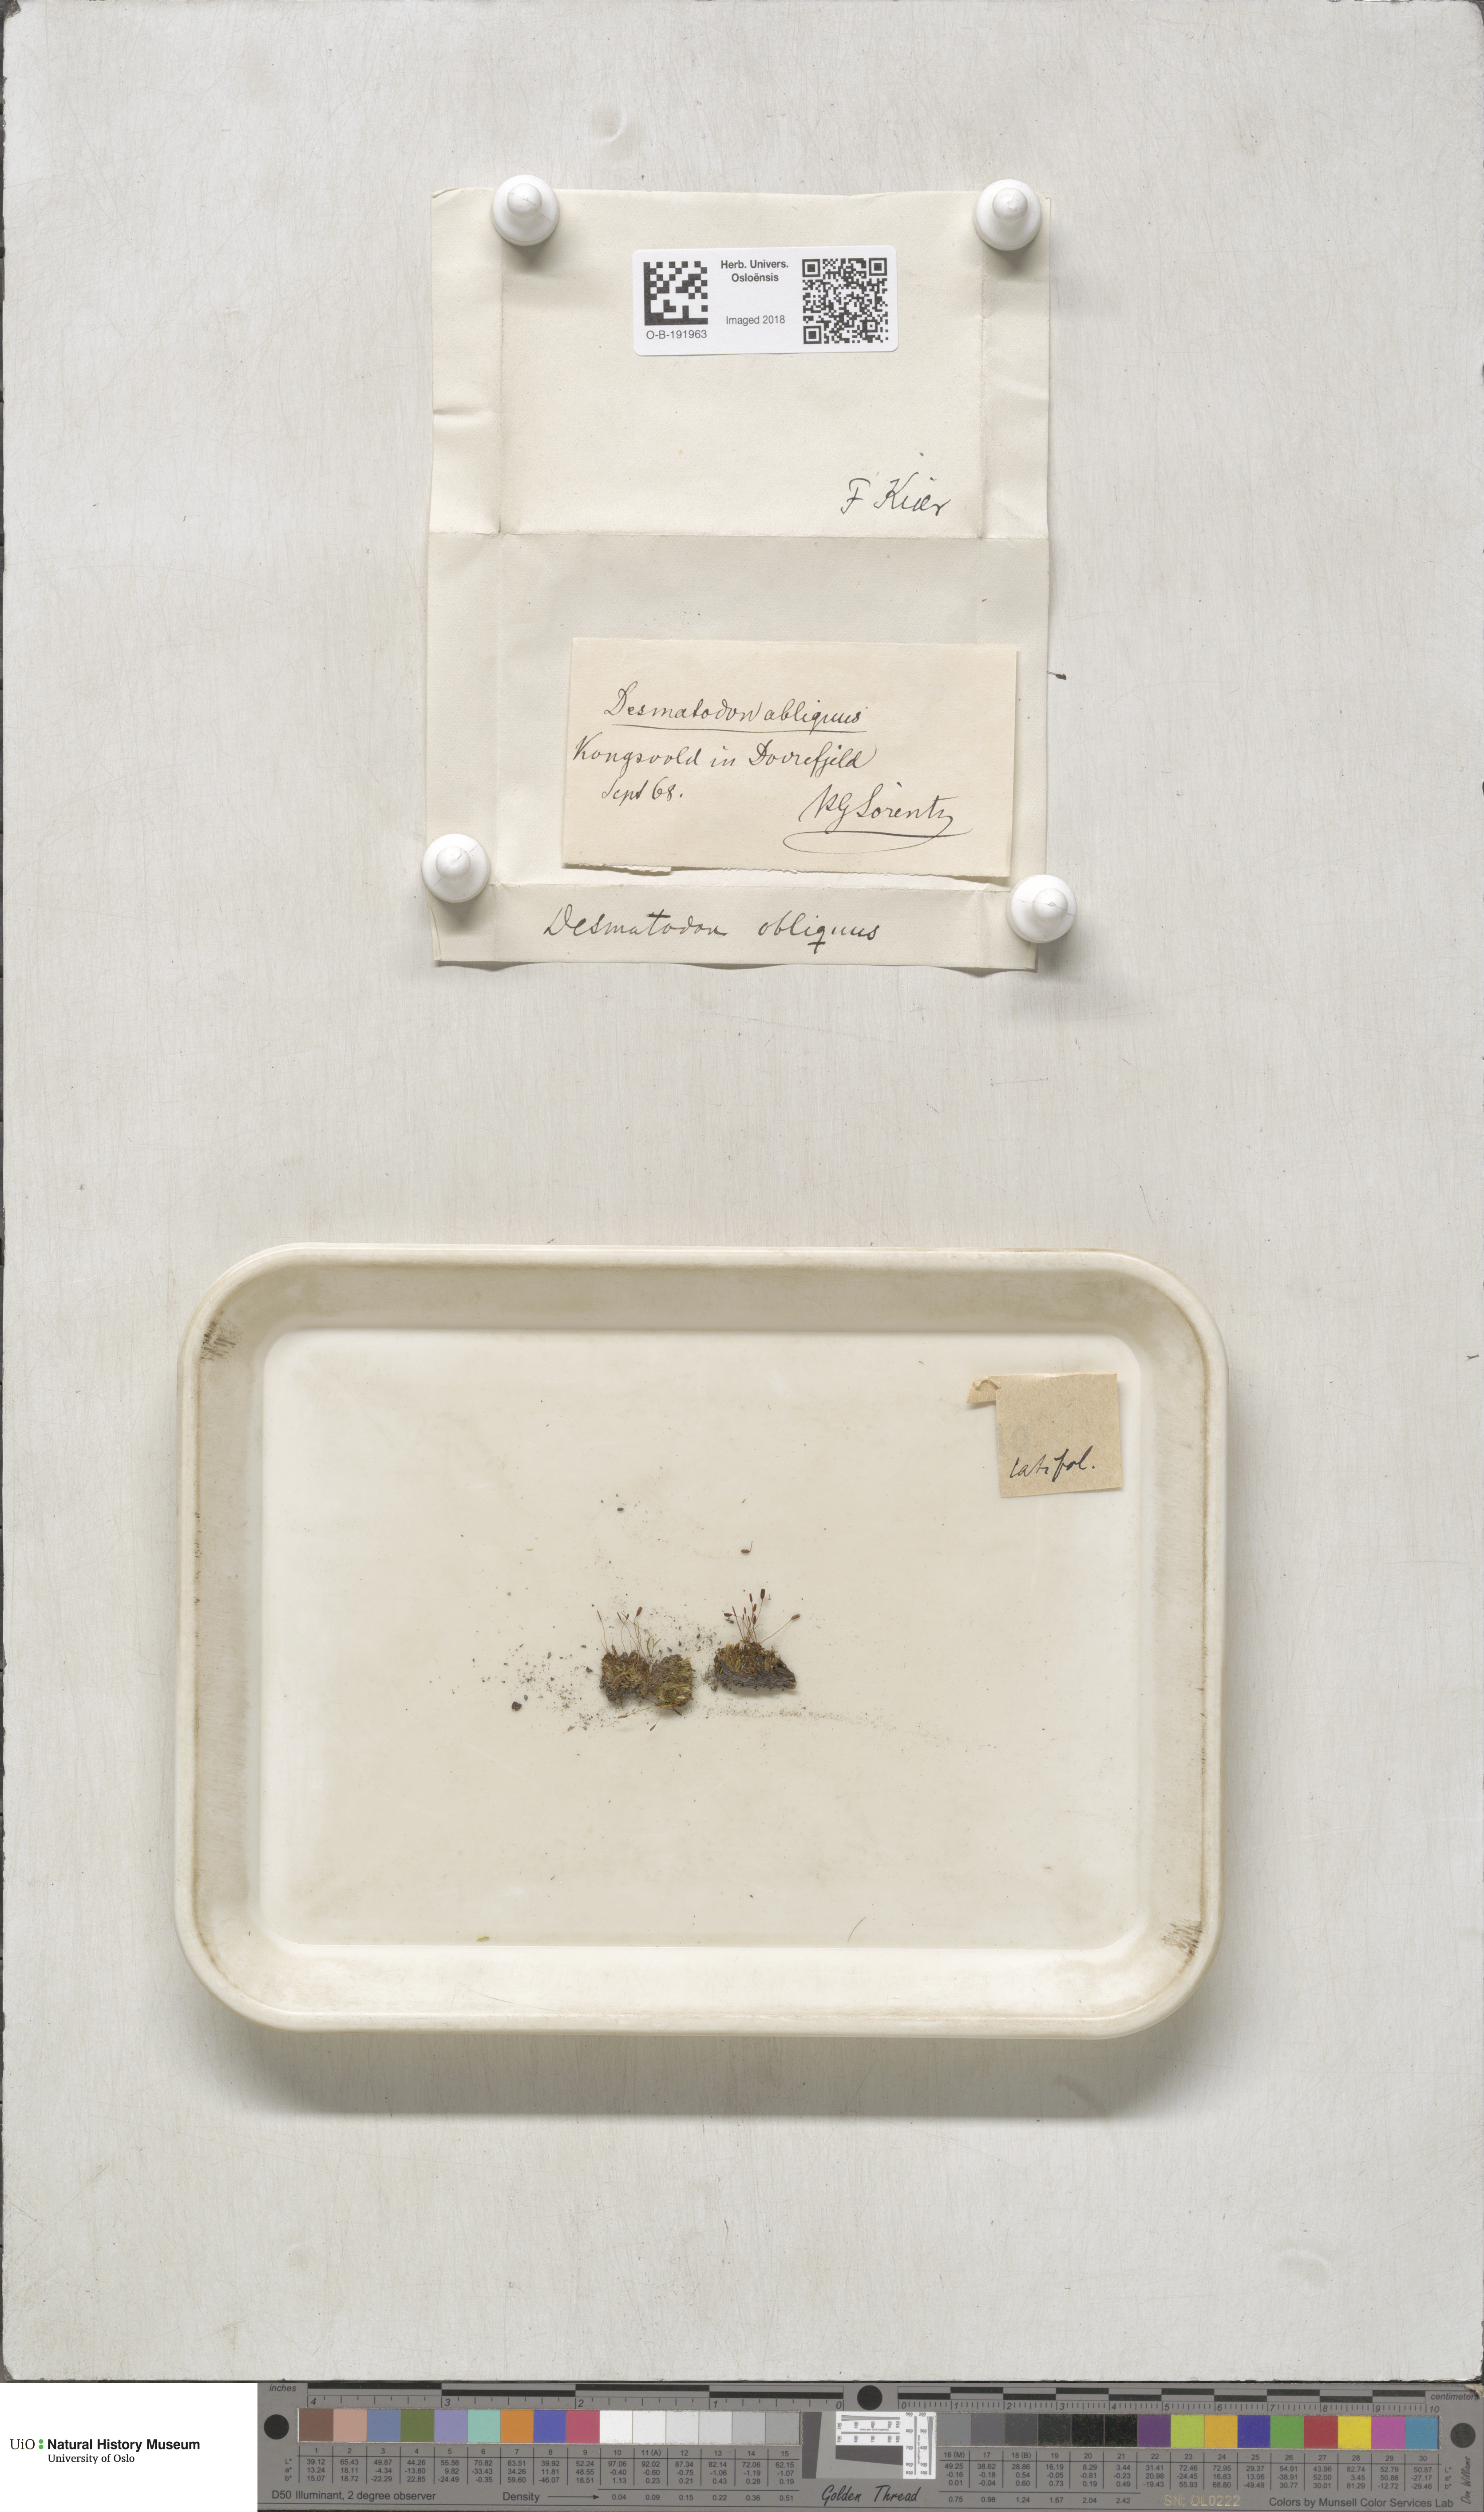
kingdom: Plantae
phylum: Bryophyta
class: Bryopsida
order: Pottiales
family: Pottiaceae
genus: Tortula
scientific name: Tortula hoppeana
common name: Hoppe's screw moss
